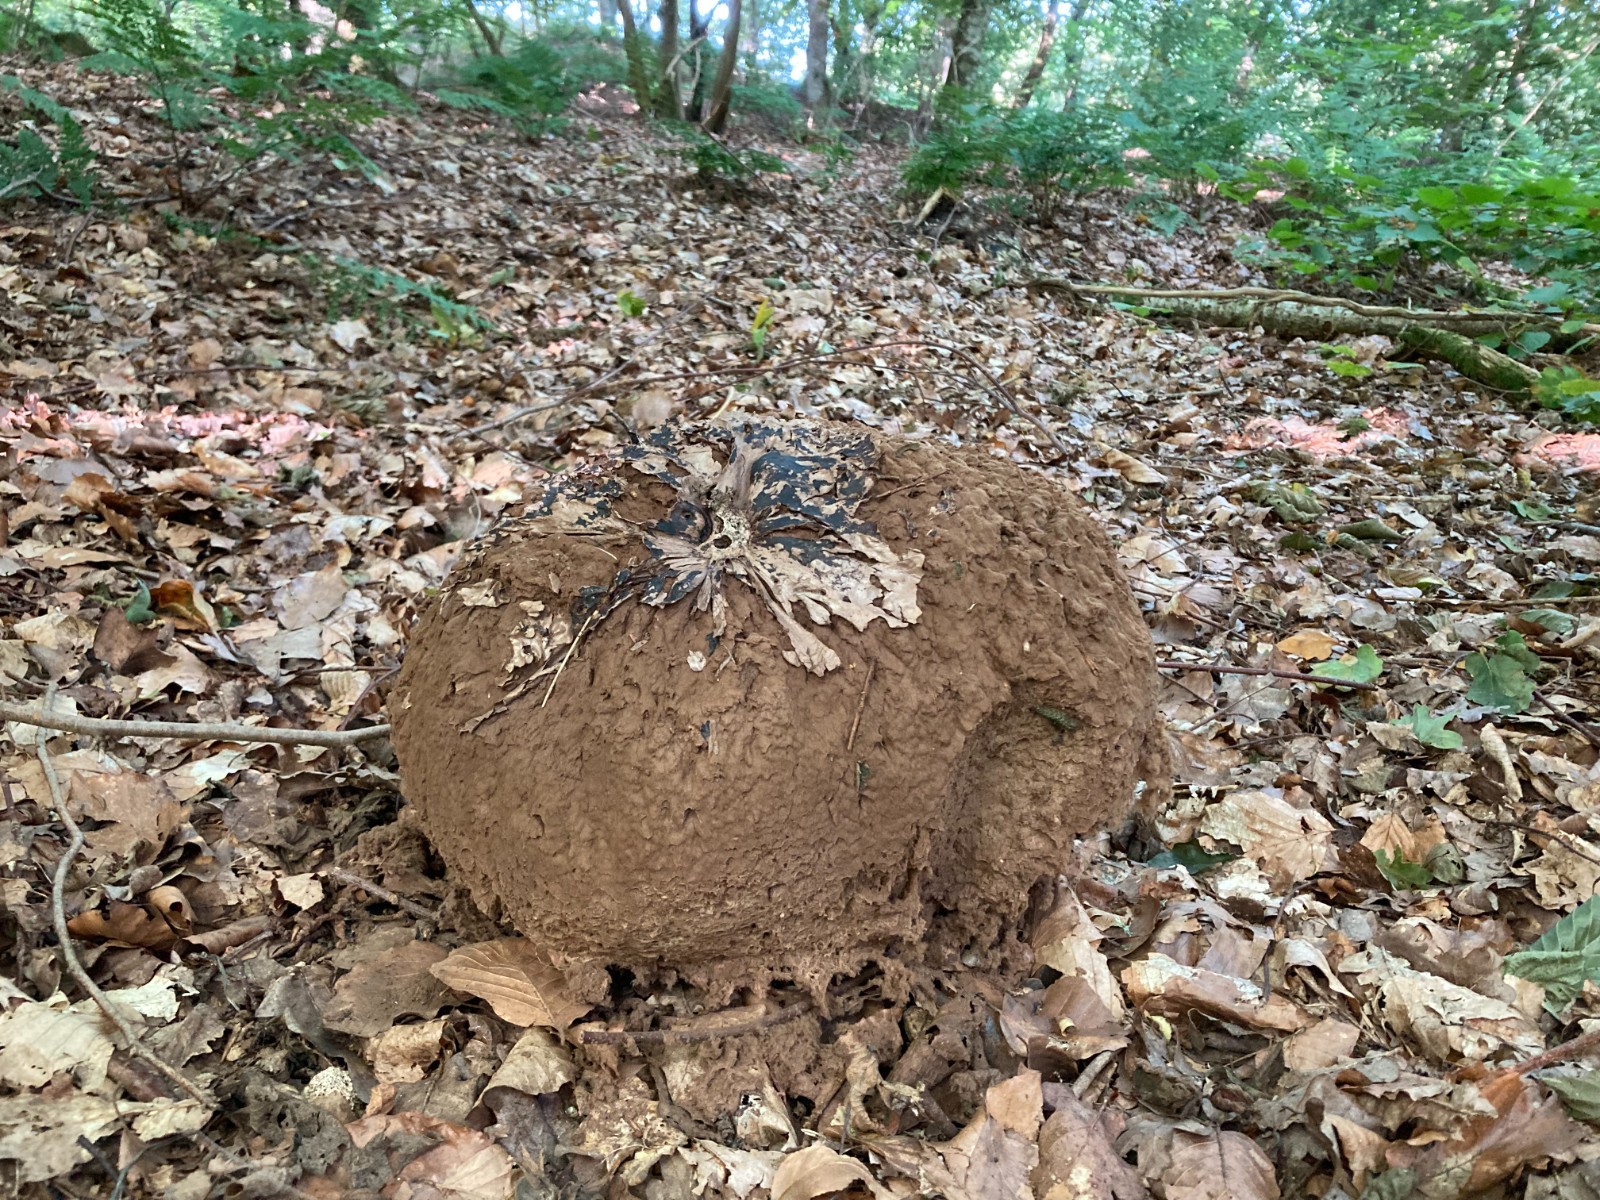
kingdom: Fungi
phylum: Basidiomycota
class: Agaricomycetes
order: Agaricales
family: Lycoperdaceae
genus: Calvatia
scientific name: Calvatia gigantea
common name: kæmpestøvbold
